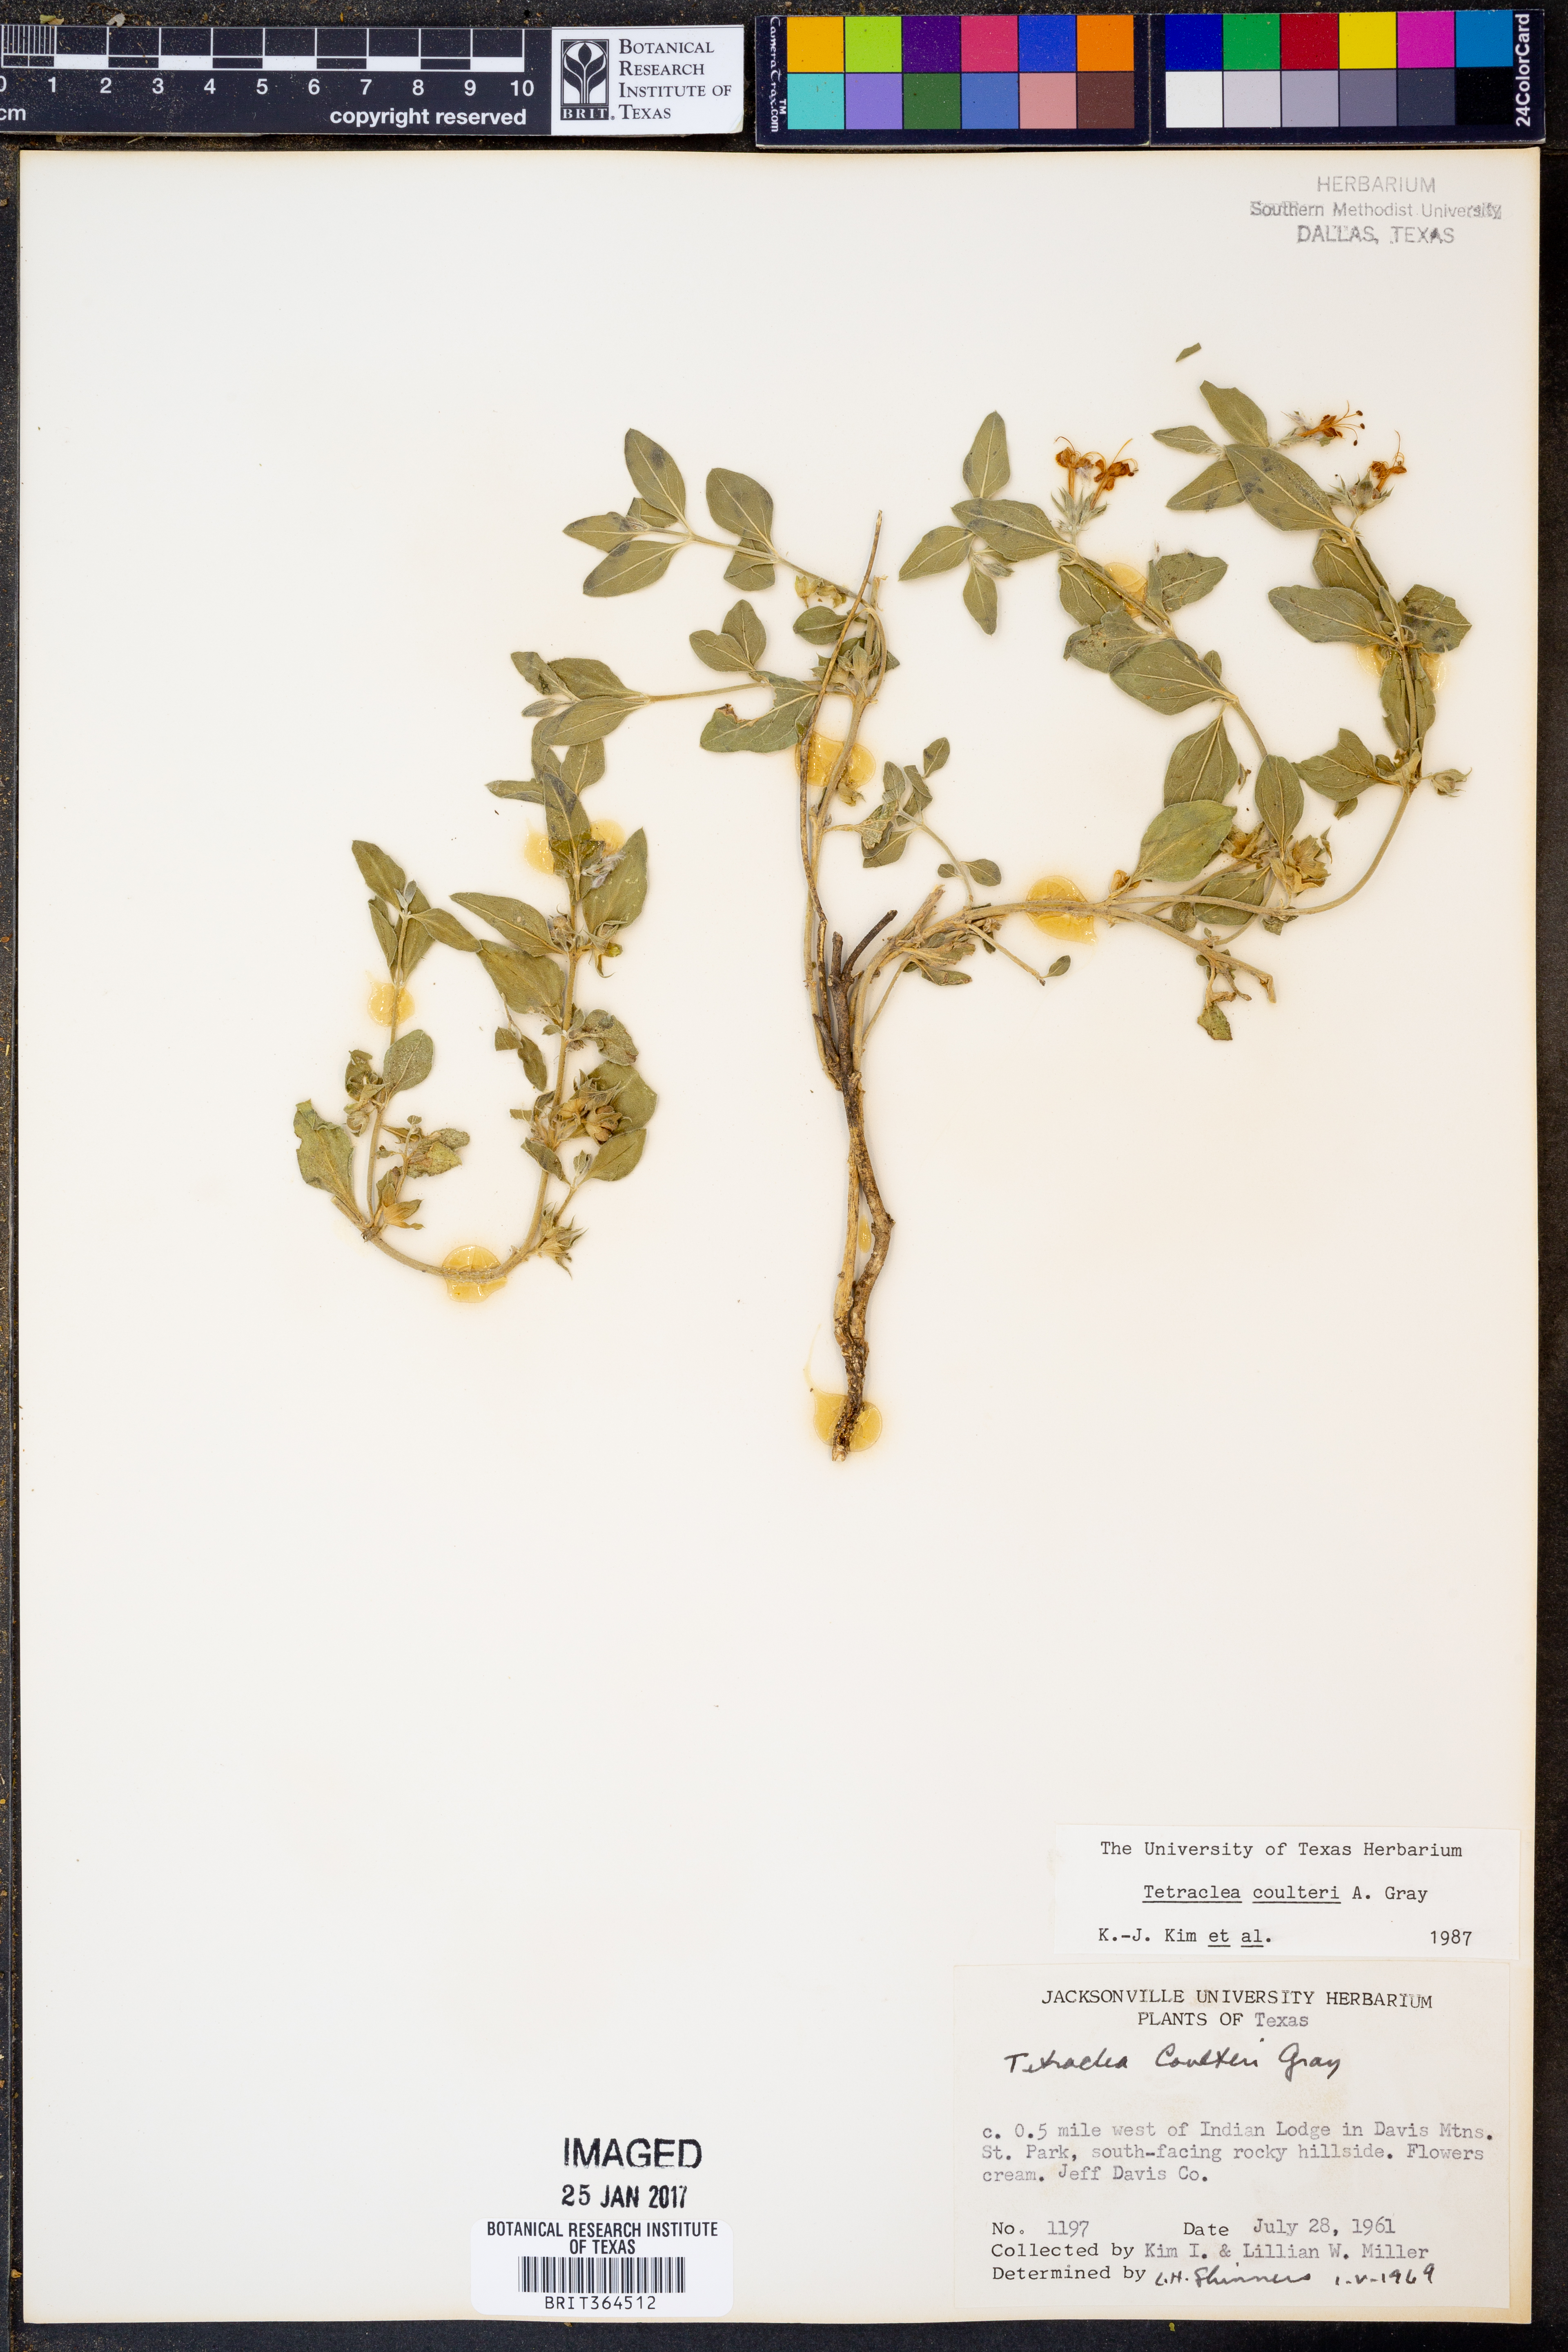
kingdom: Plantae
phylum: Tracheophyta
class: Magnoliopsida
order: Lamiales
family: Lamiaceae
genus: Tetraclea
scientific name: Tetraclea coulteri
